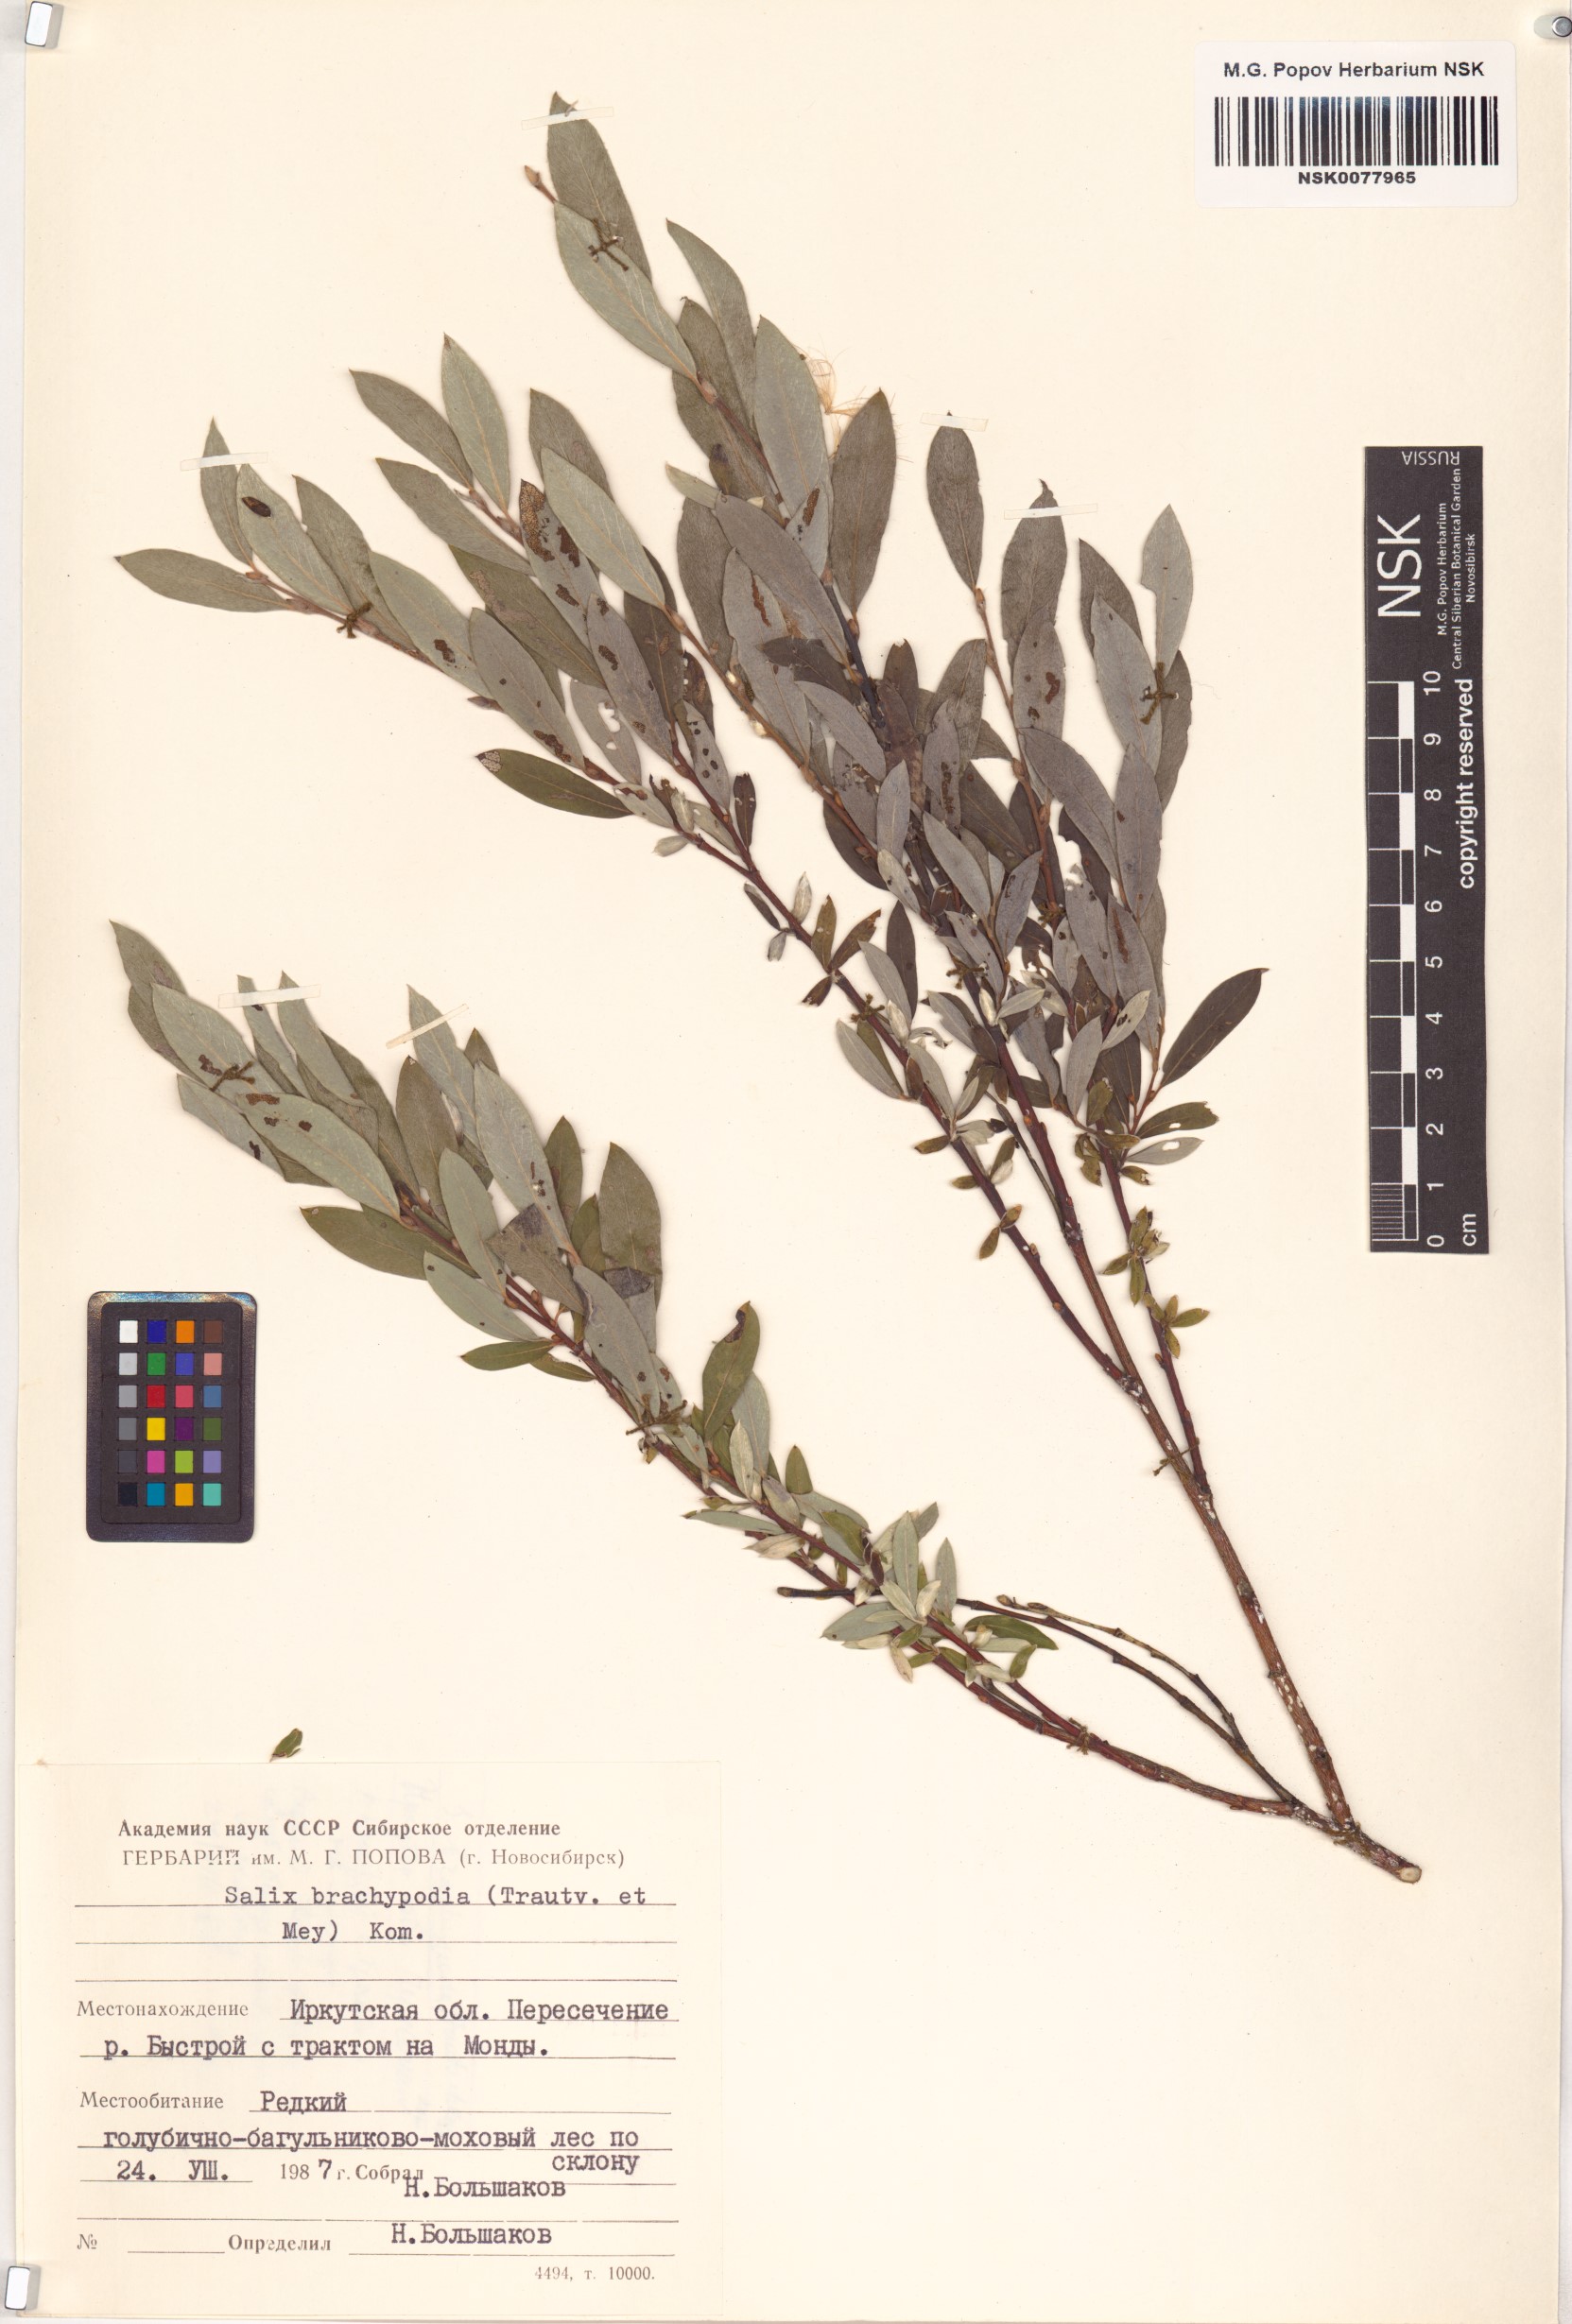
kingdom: Plantae
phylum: Tracheophyta
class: Magnoliopsida
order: Malpighiales
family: Salicaceae
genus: Salix
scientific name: Salix brachypoda
